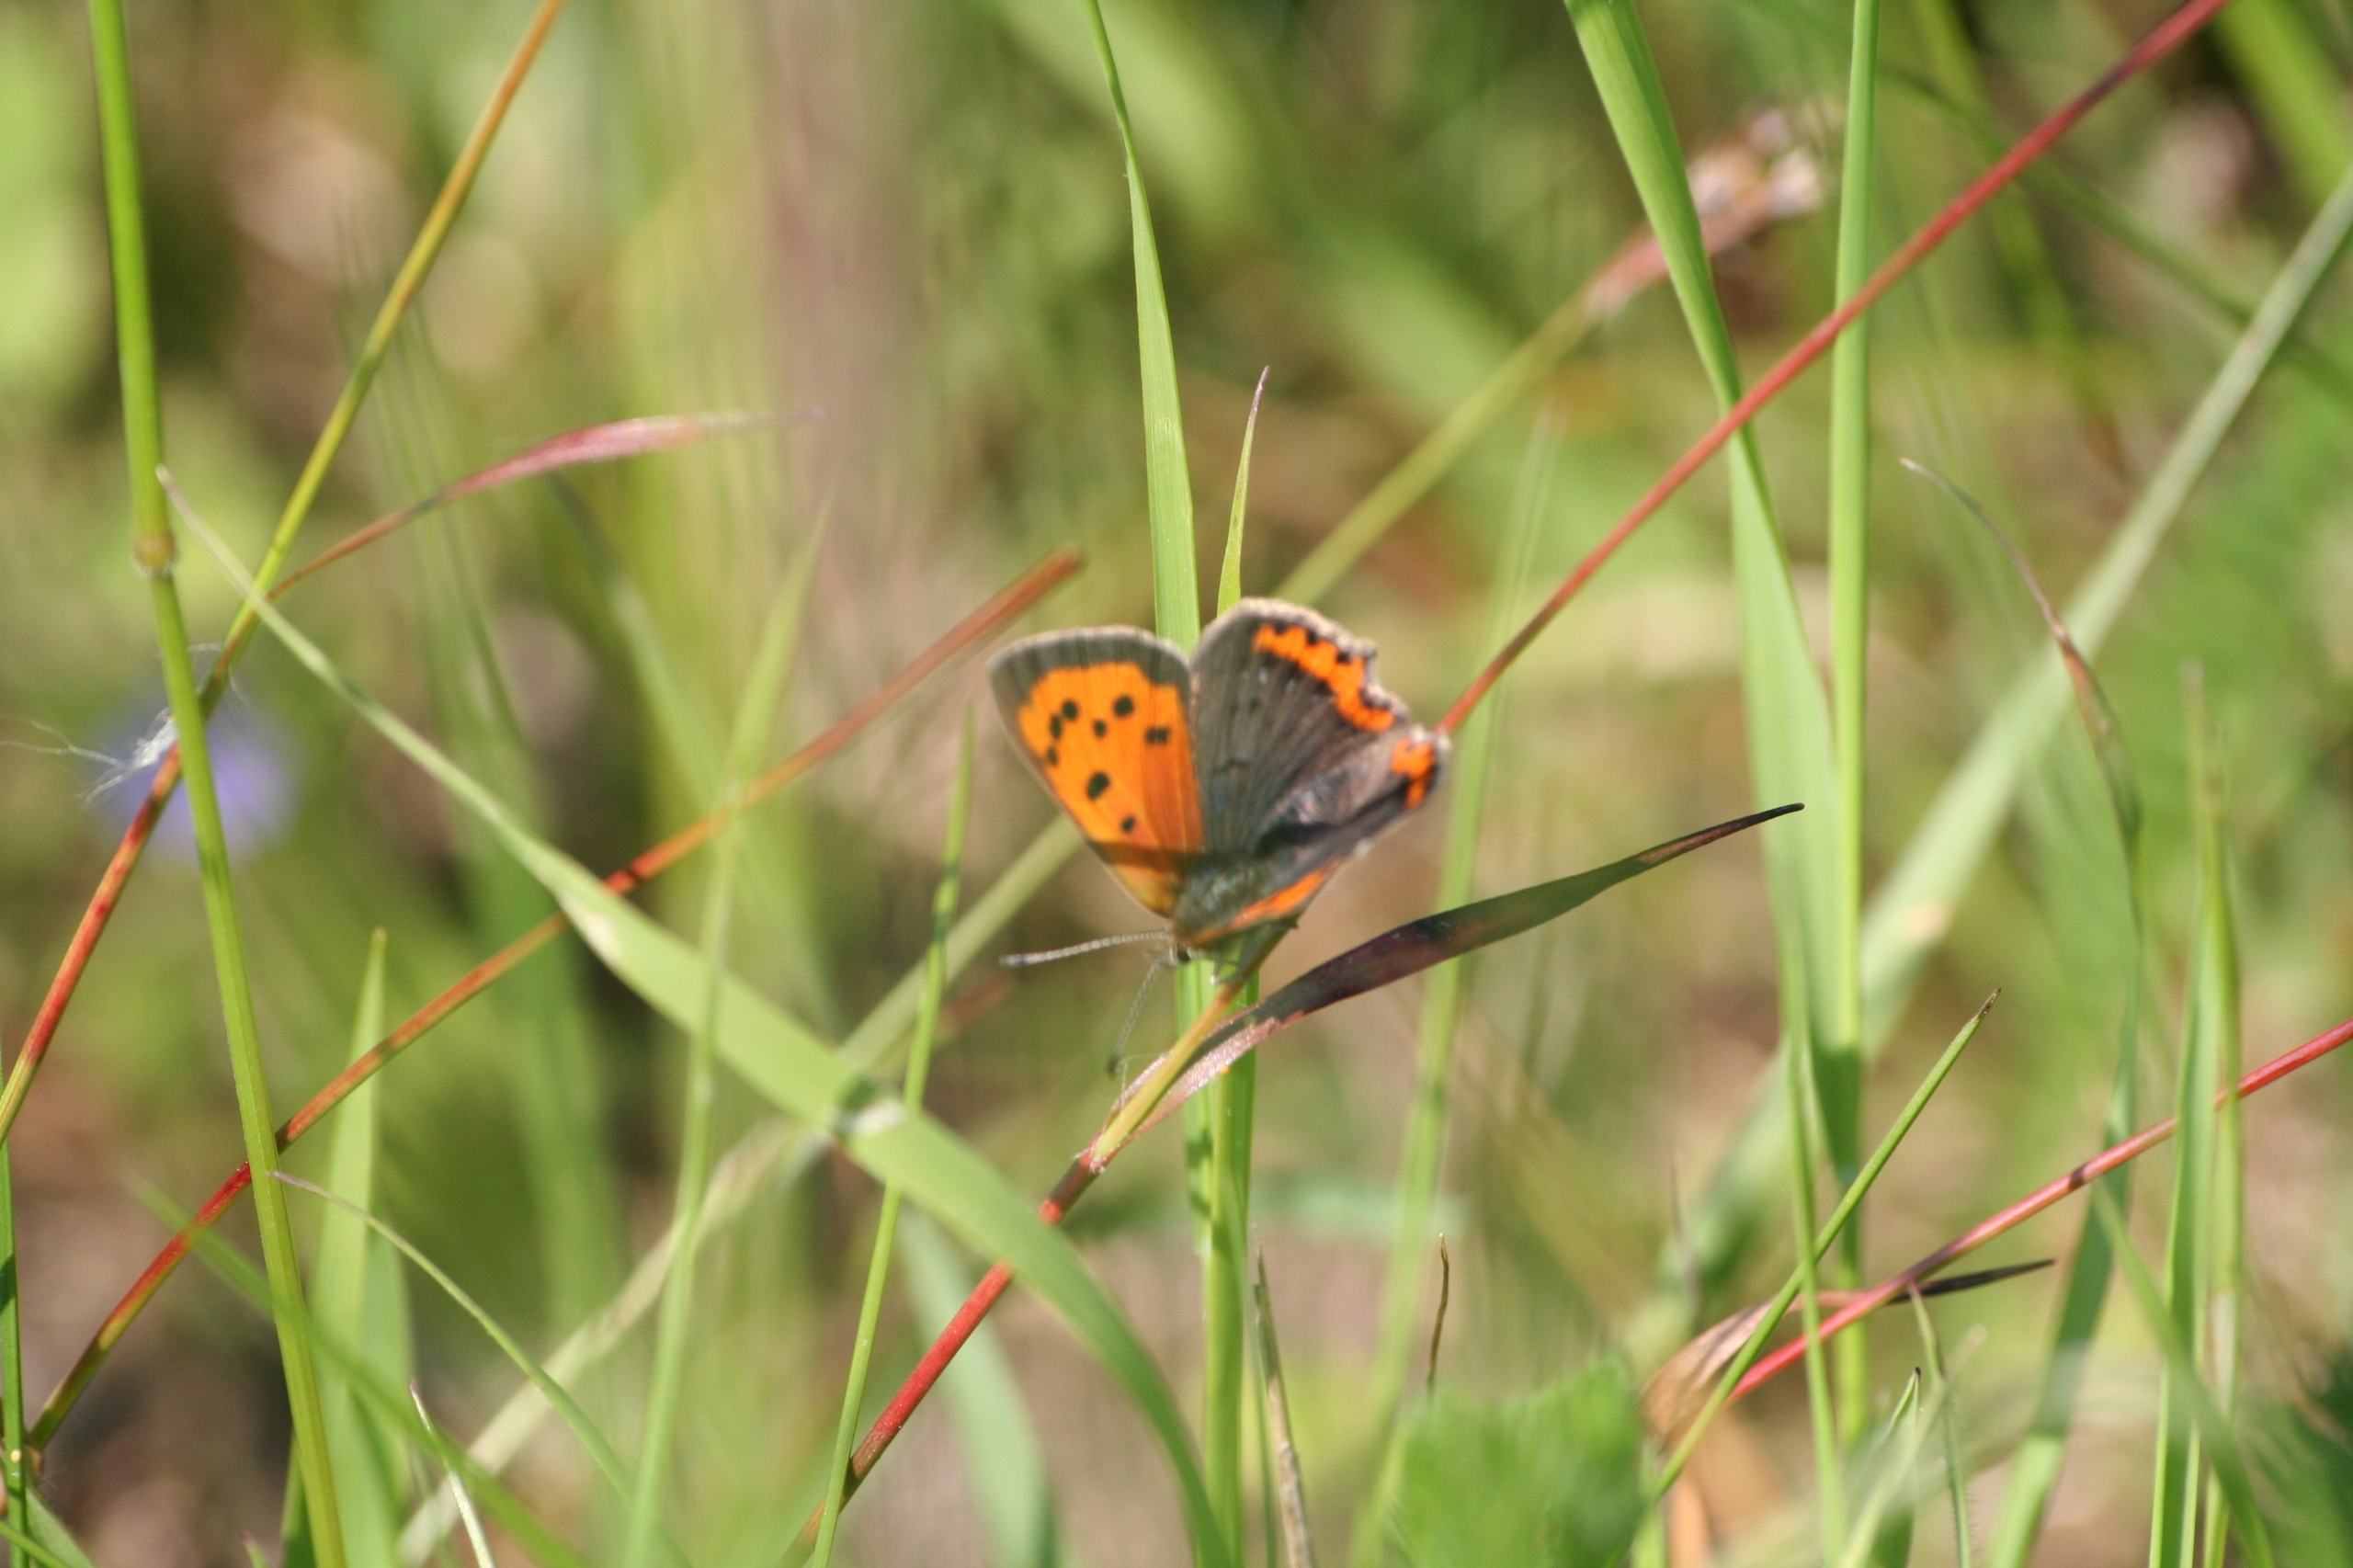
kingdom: Animalia
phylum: Arthropoda
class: Insecta
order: Lepidoptera
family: Lycaenidae
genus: Lycaena
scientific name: Lycaena phlaeas
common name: Lille ildfugl
